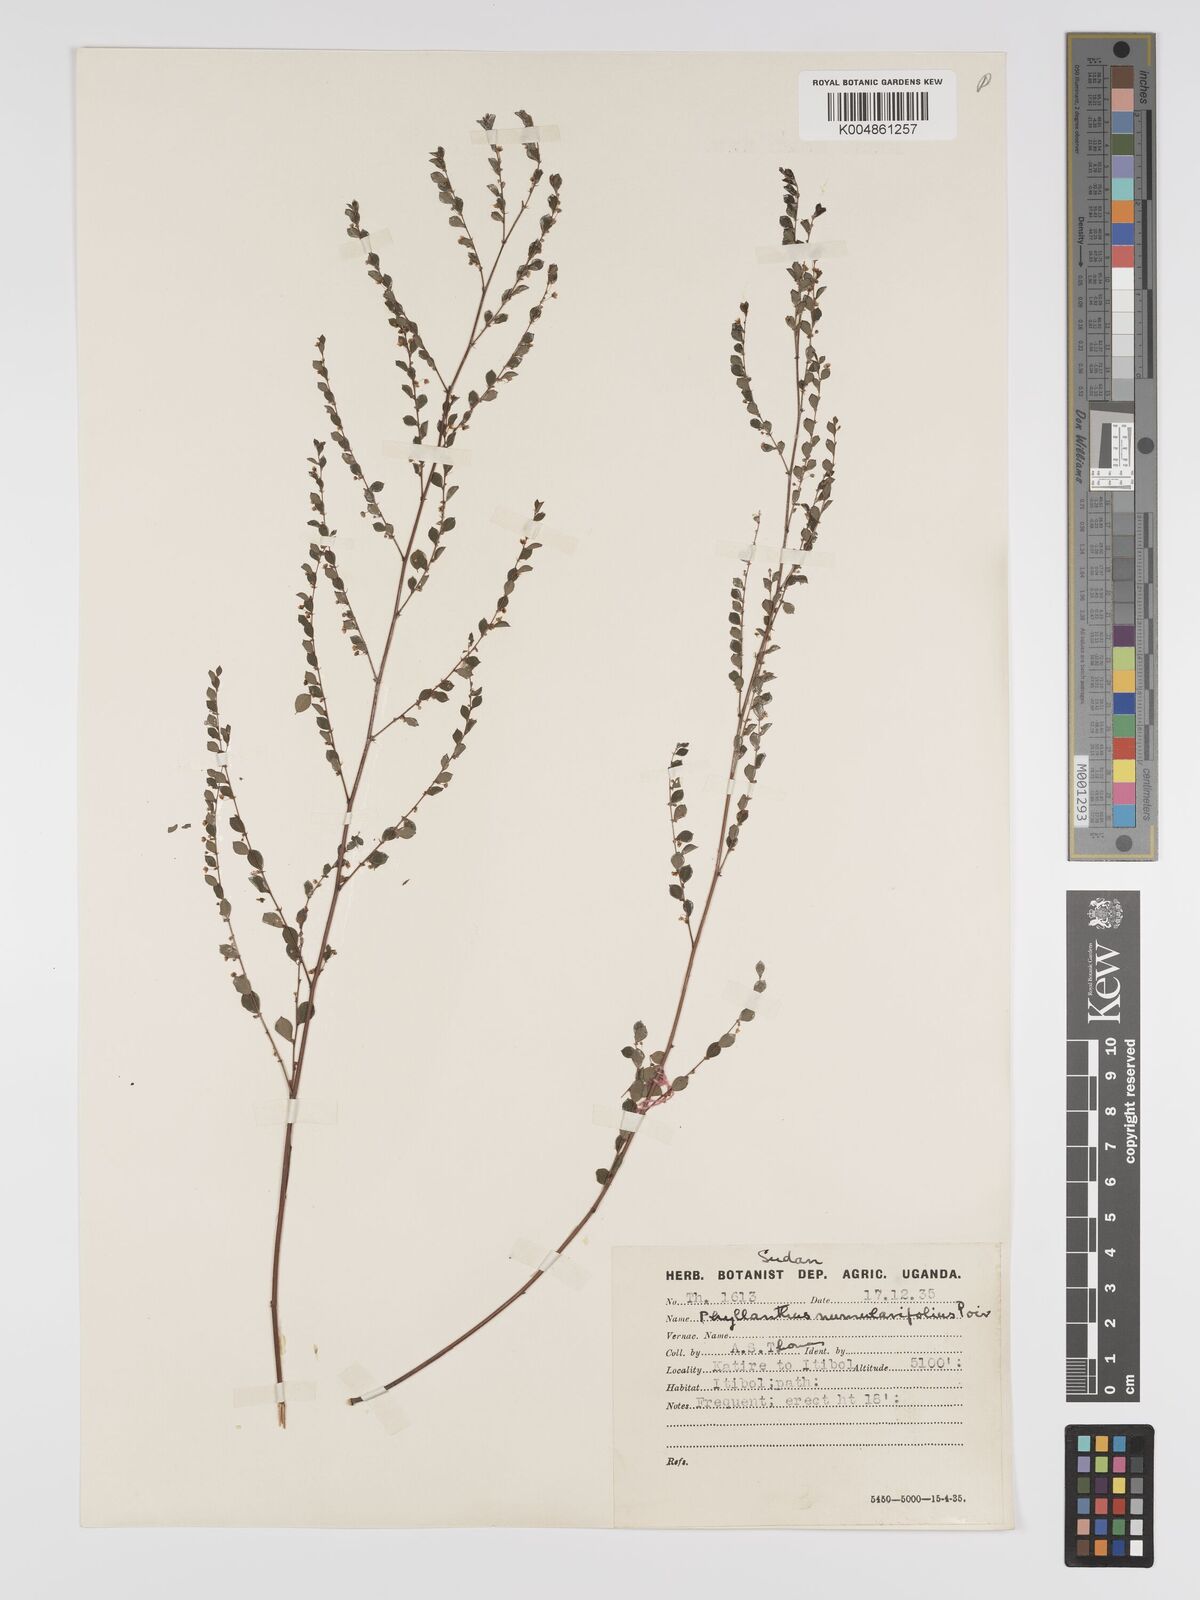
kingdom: Plantae
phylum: Tracheophyta
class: Magnoliopsida
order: Malpighiales
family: Phyllanthaceae
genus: Phyllanthus
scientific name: Phyllanthus nummulariifolius
